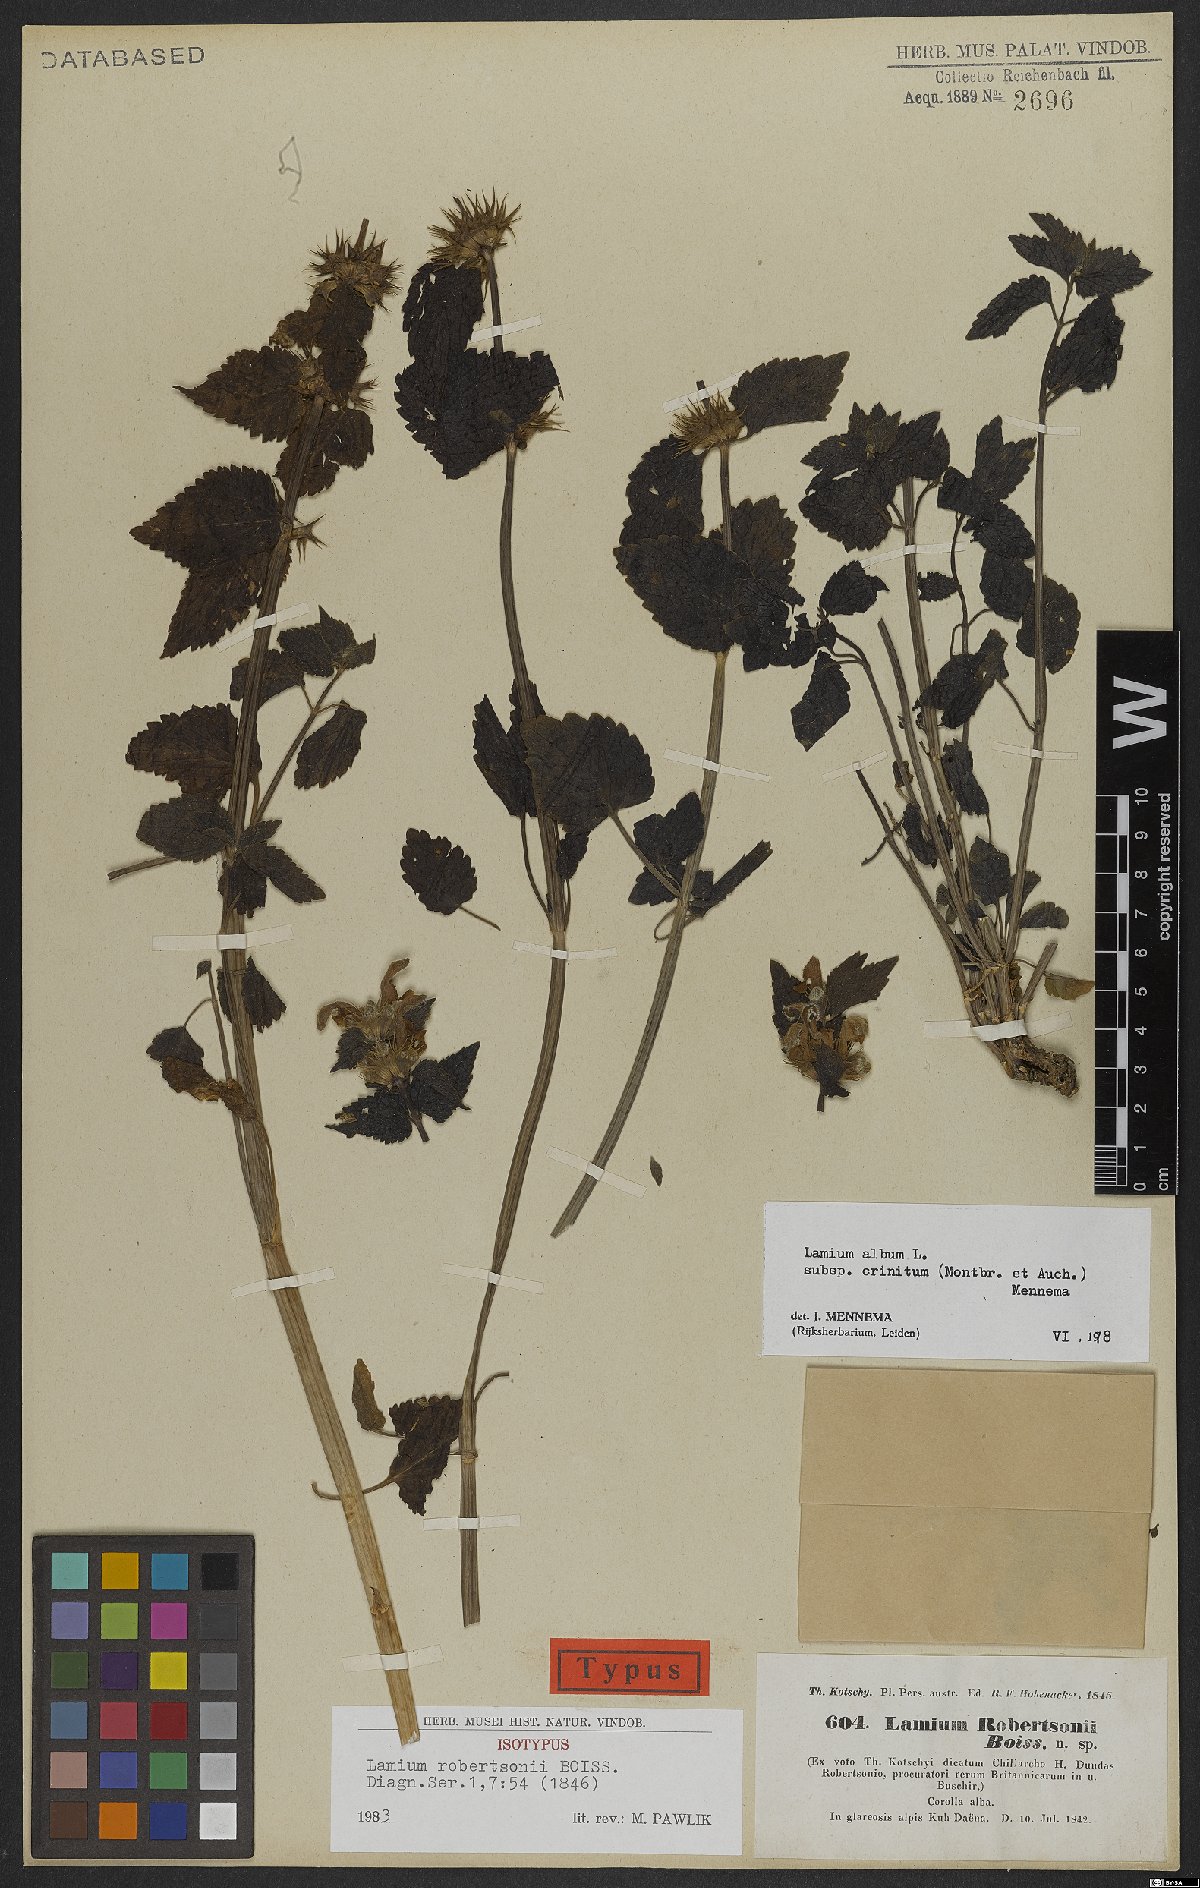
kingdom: Plantae
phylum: Tracheophyta
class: Magnoliopsida
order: Lamiales
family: Lamiaceae
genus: Lamium
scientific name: Lamium album
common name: White dead-nettle
